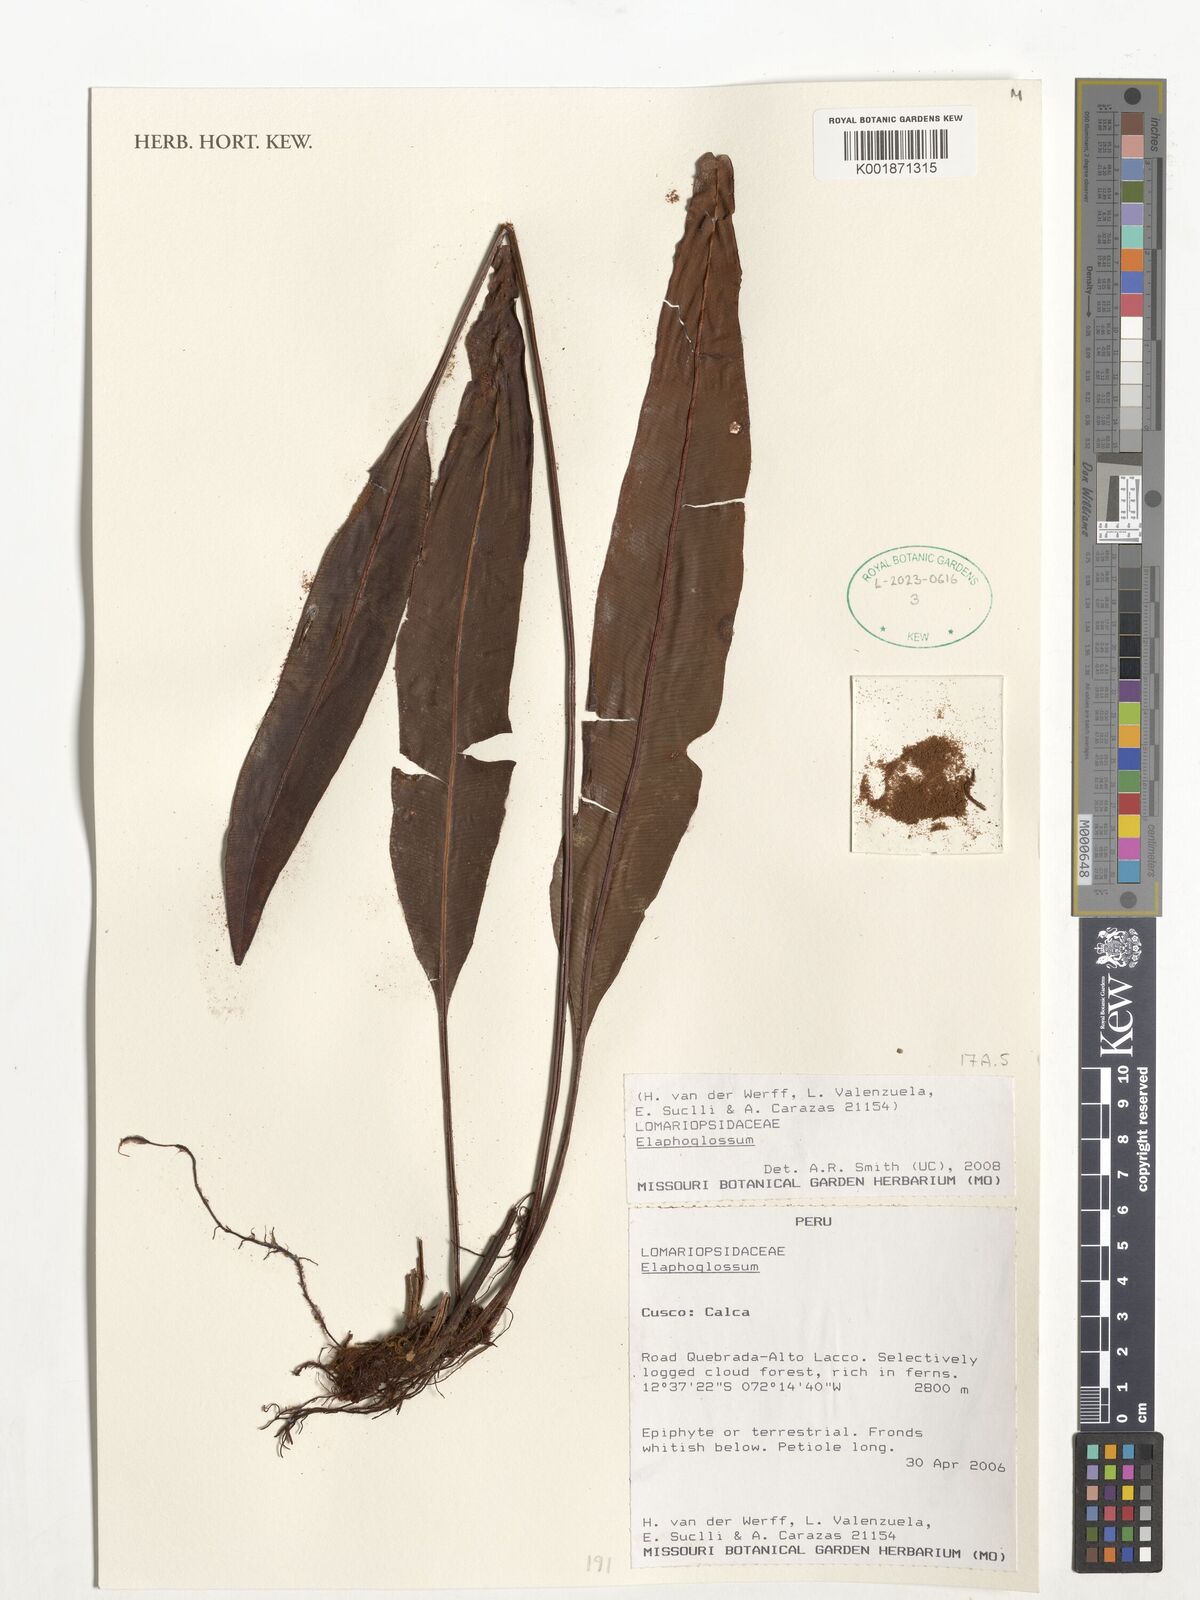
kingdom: Plantae
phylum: Tracheophyta
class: Polypodiopsida
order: Polypodiales
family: Dryopteridaceae
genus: Elaphoglossum
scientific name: Elaphoglossum
